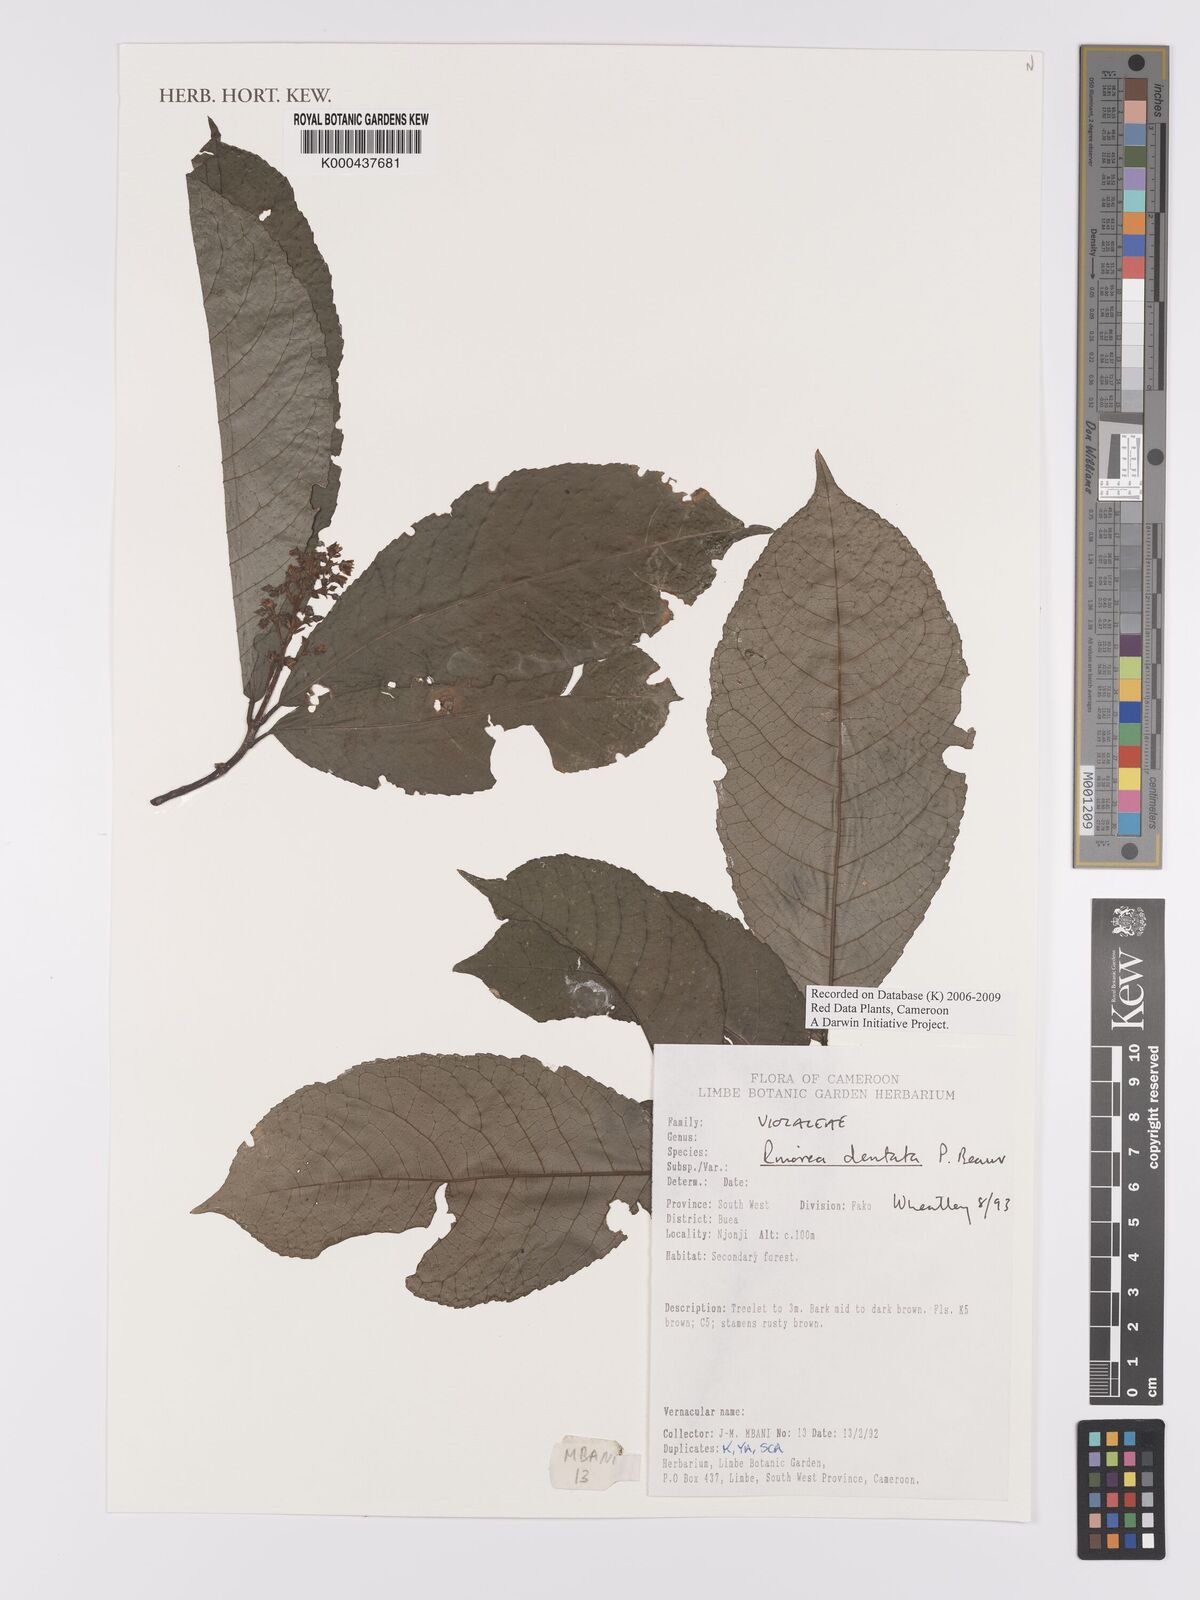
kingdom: Plantae
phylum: Tracheophyta
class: Magnoliopsida
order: Malpighiales
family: Violaceae
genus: Rinorea
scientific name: Rinorea dentata
